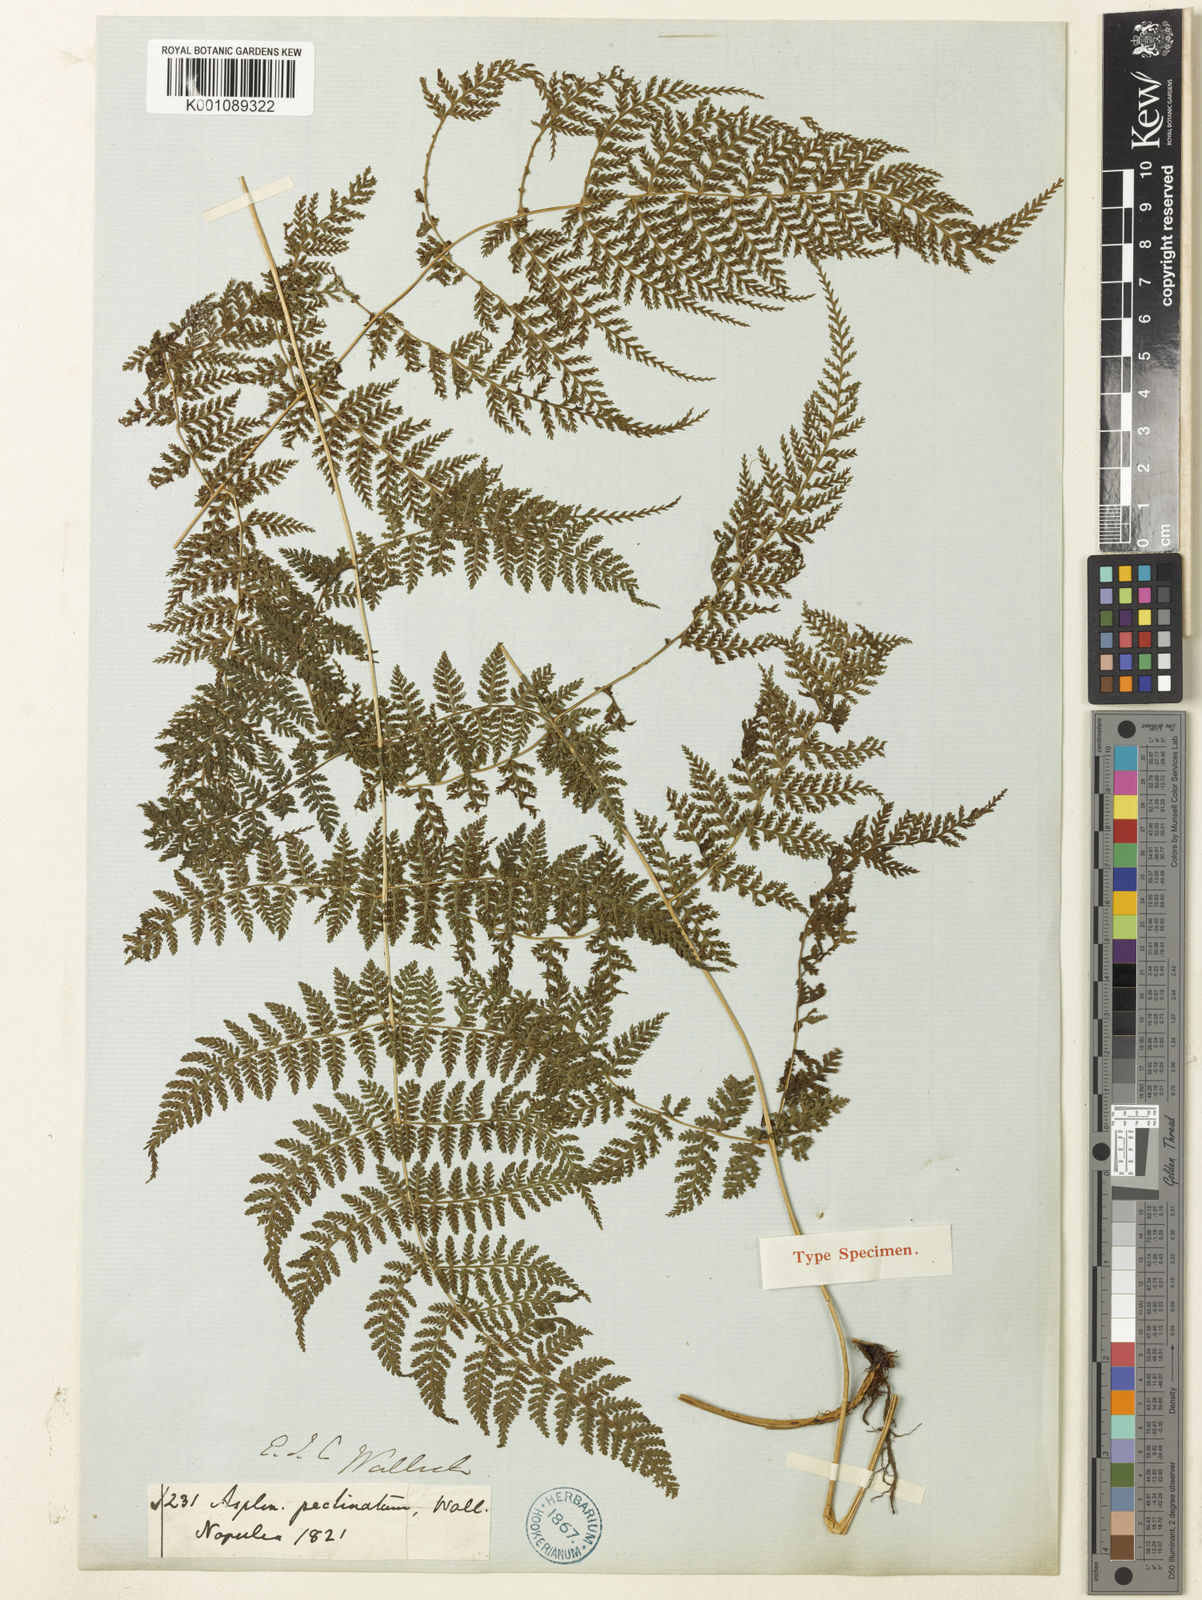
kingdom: Plantae
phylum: Tracheophyta
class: Polypodiopsida
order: Polypodiales
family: Athyriaceae
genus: Athyrium
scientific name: Athyrium
